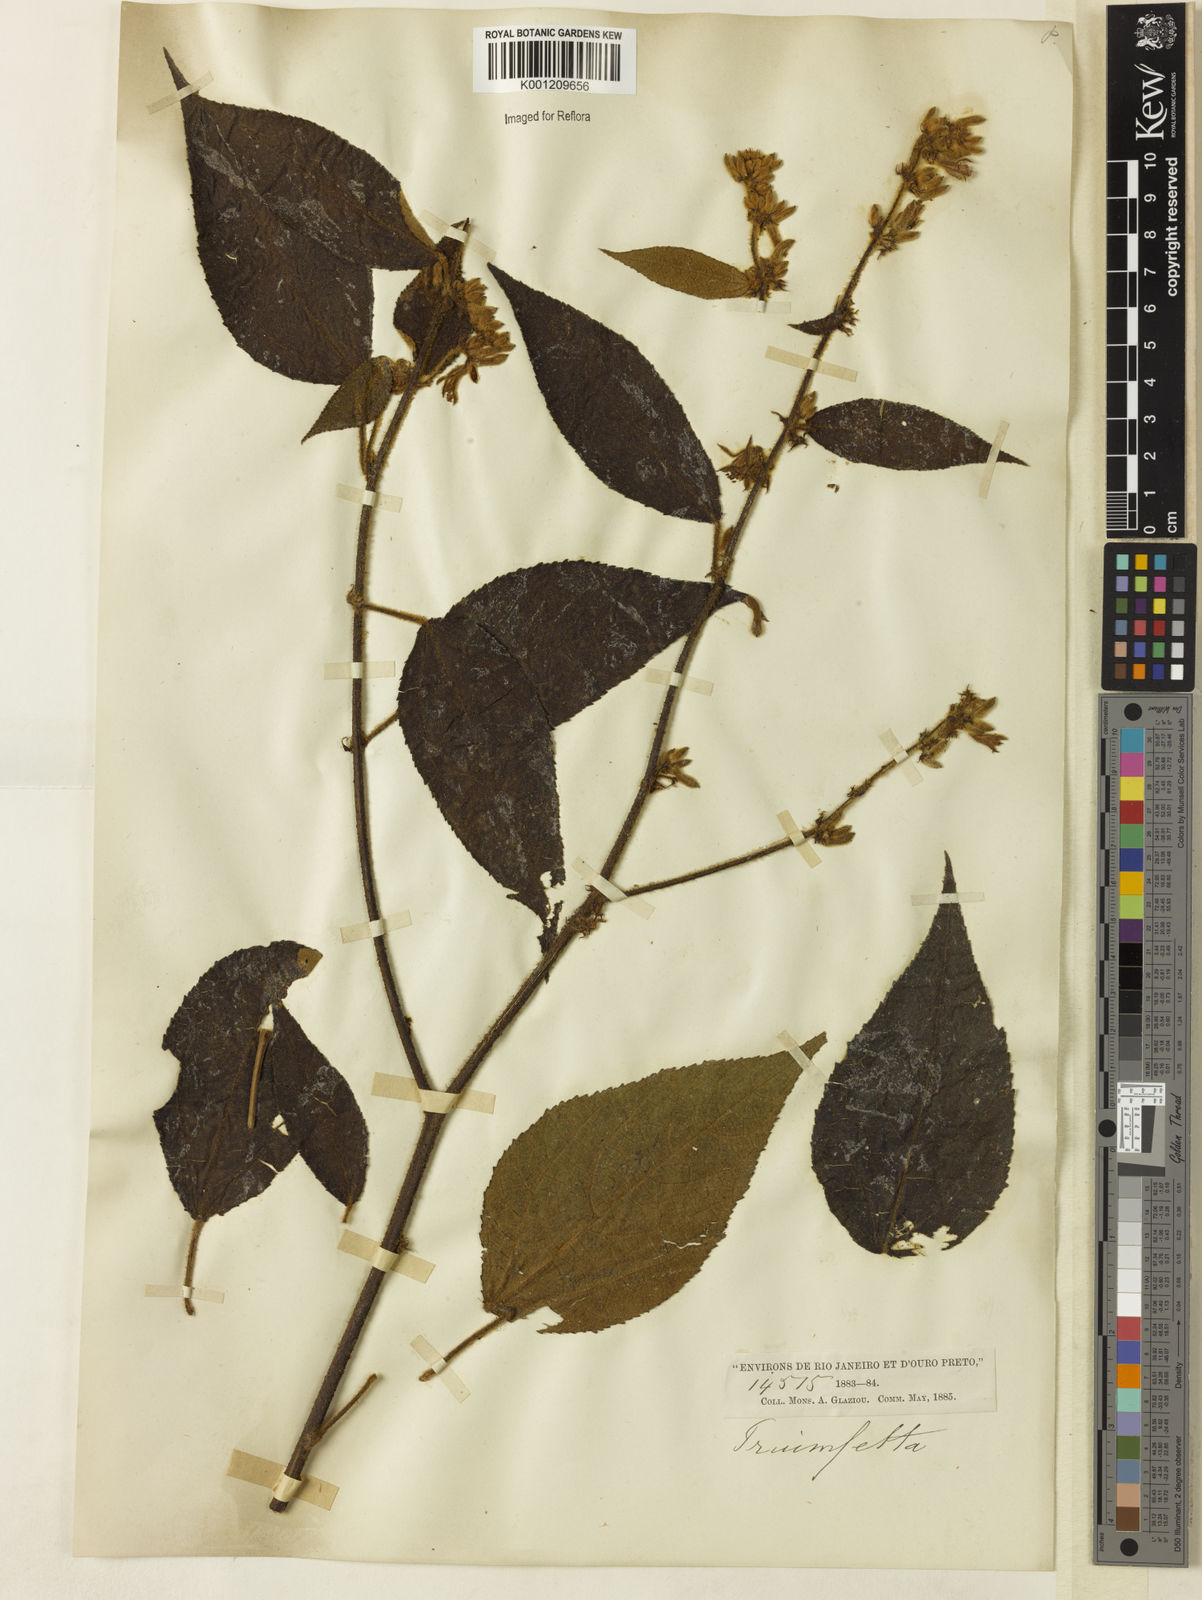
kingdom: Plantae
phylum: Tracheophyta
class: Magnoliopsida
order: Malvales
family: Malvaceae
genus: Triumfetta
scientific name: Triumfetta
